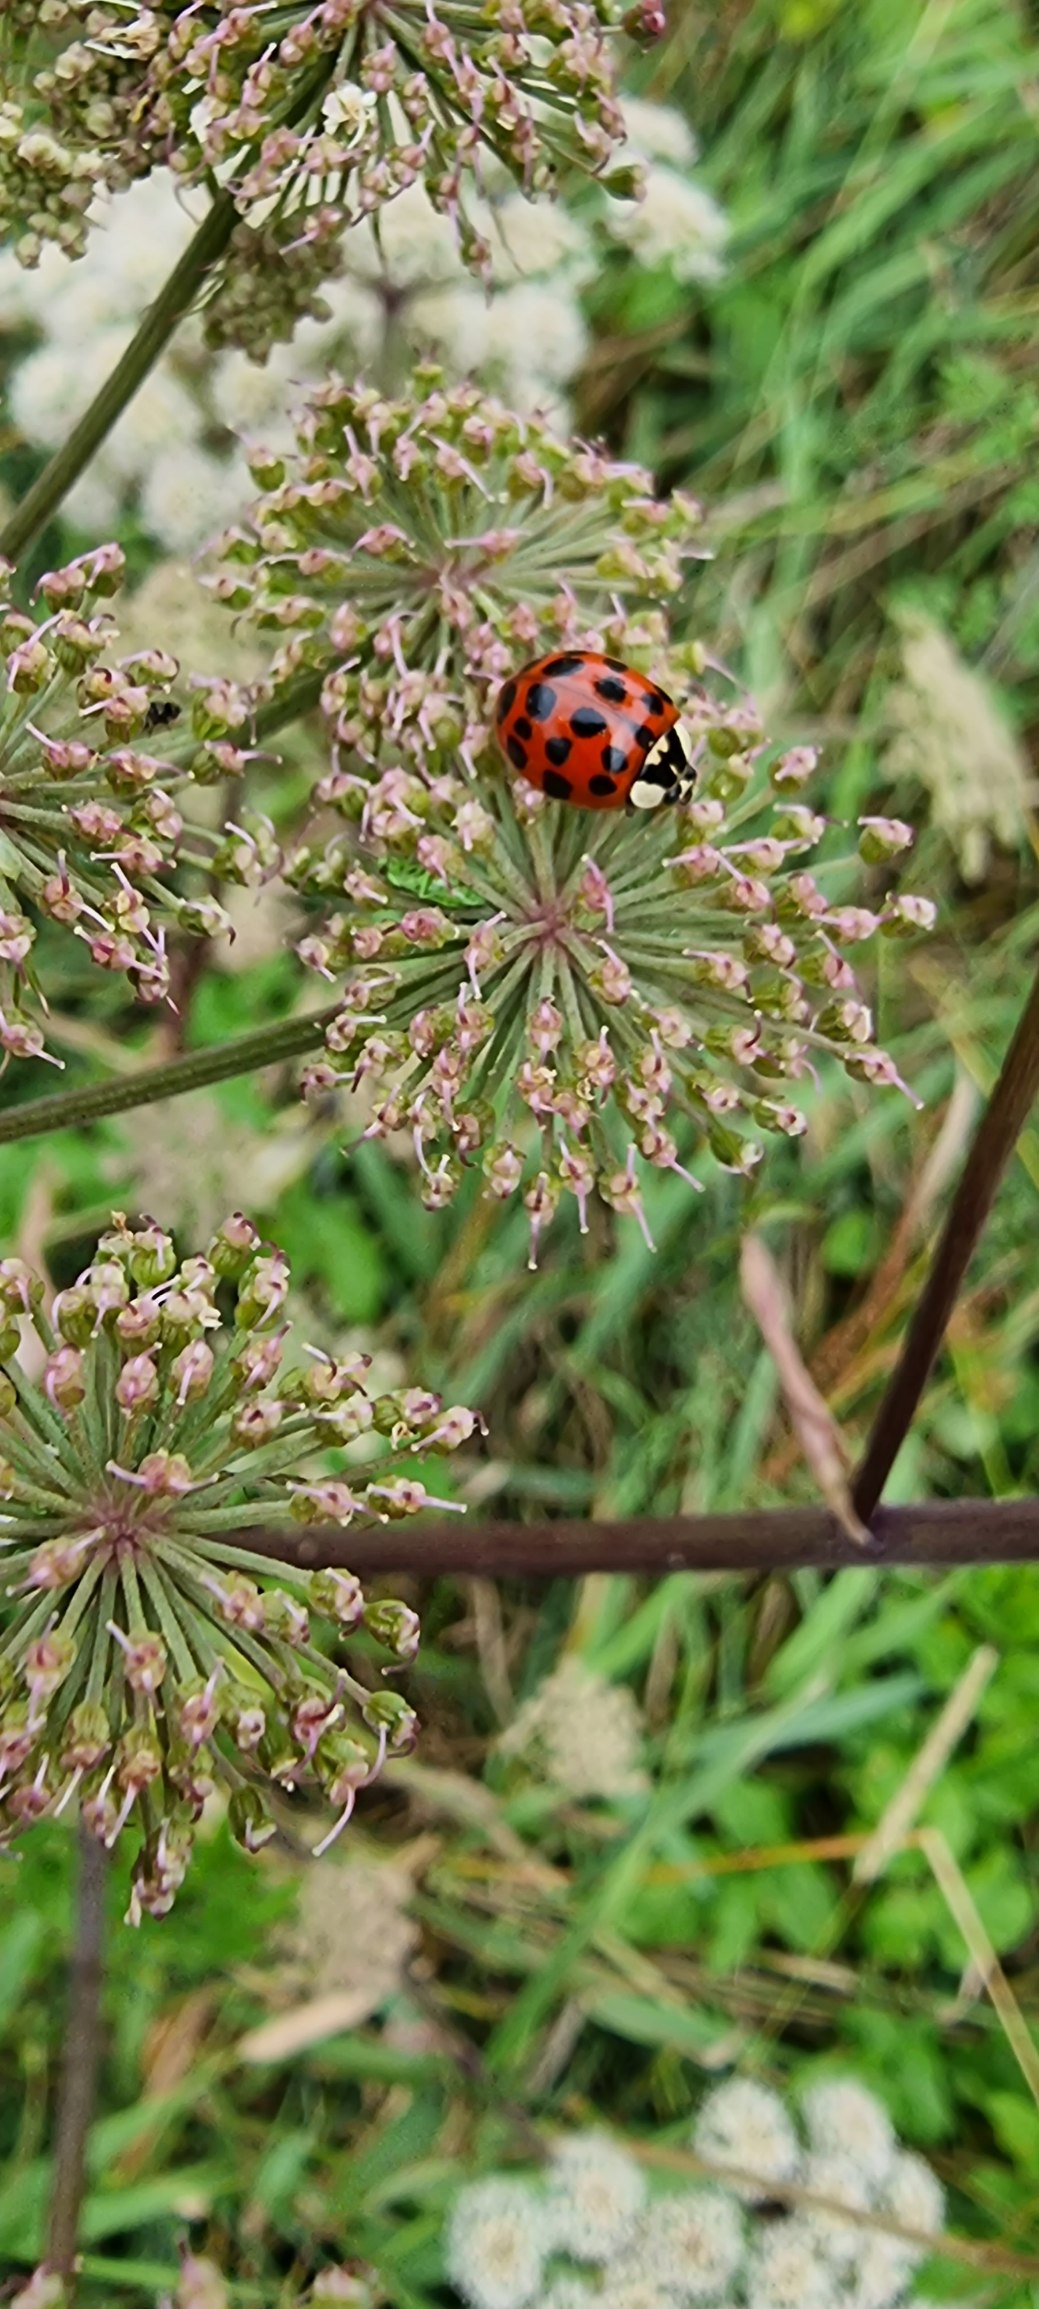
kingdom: Animalia
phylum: Arthropoda
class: Insecta
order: Coleoptera
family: Coccinellidae
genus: Harmonia
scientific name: Harmonia axyridis
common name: Harlekinmariehøne
